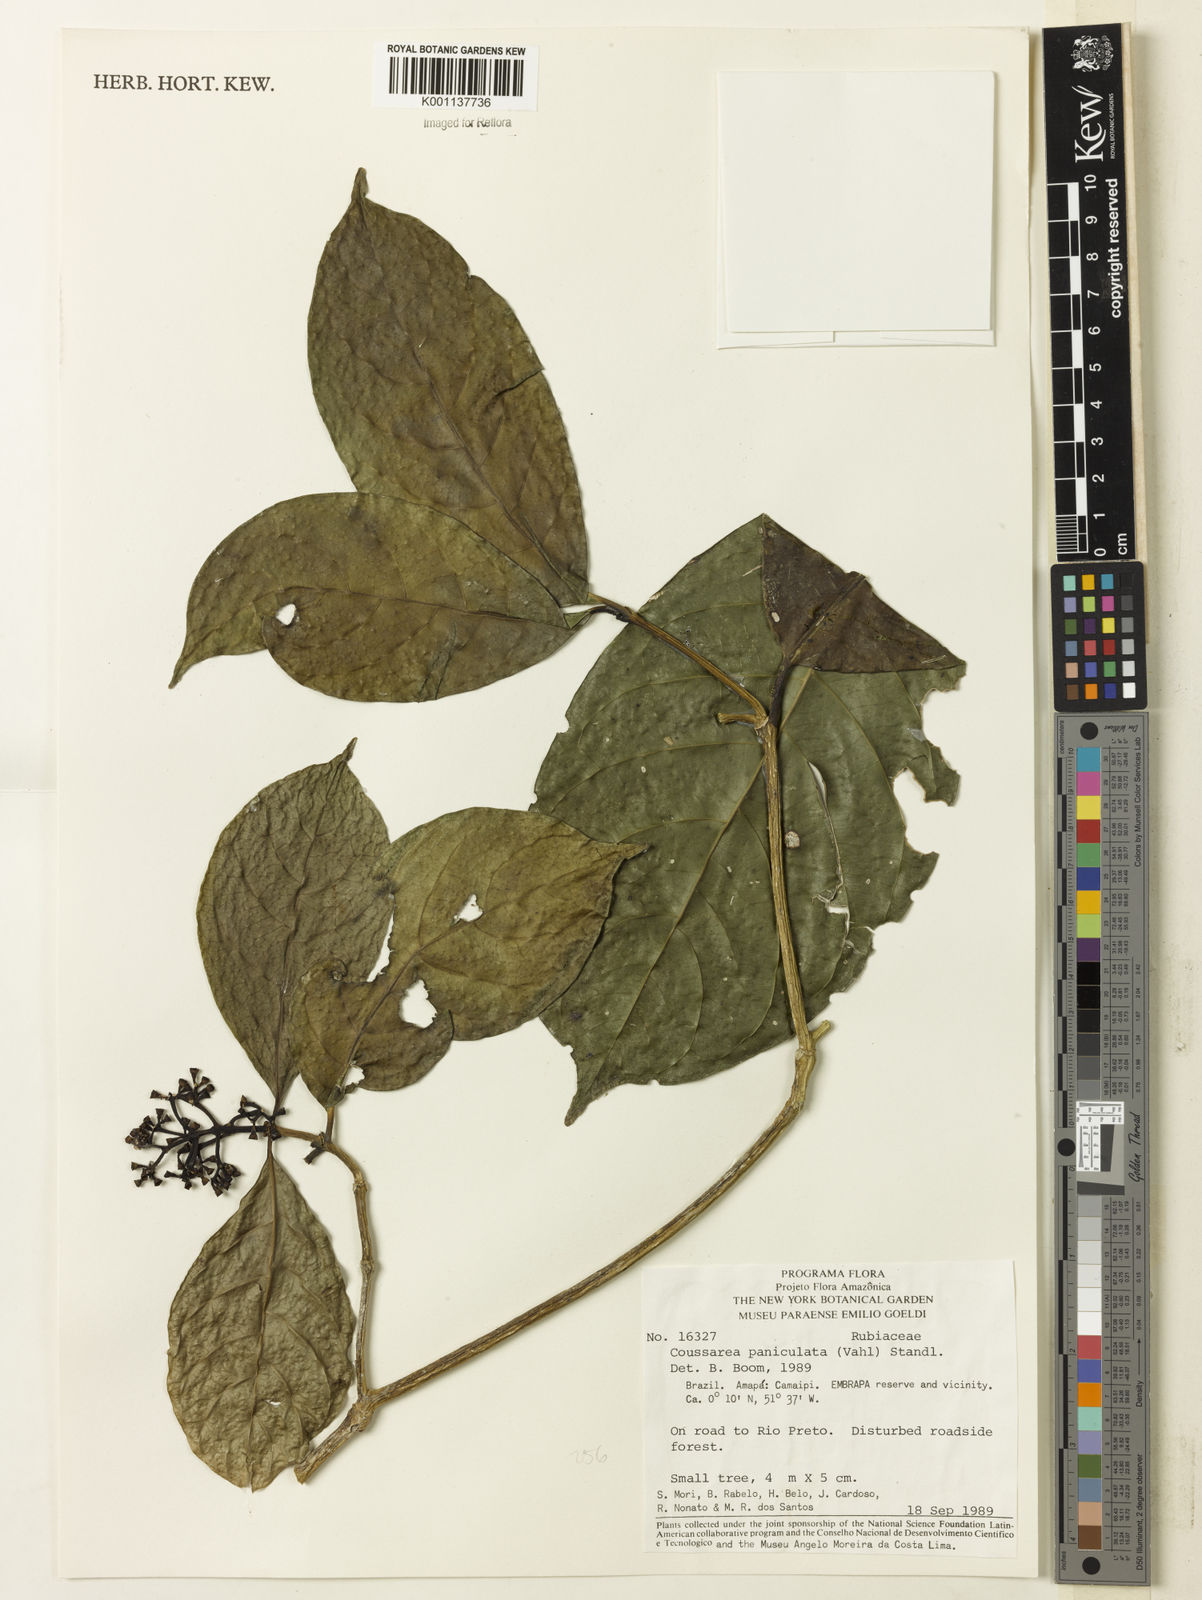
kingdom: Plantae
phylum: Tracheophyta
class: Magnoliopsida
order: Gentianales
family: Rubiaceae
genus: Coussarea
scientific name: Coussarea paniculata
